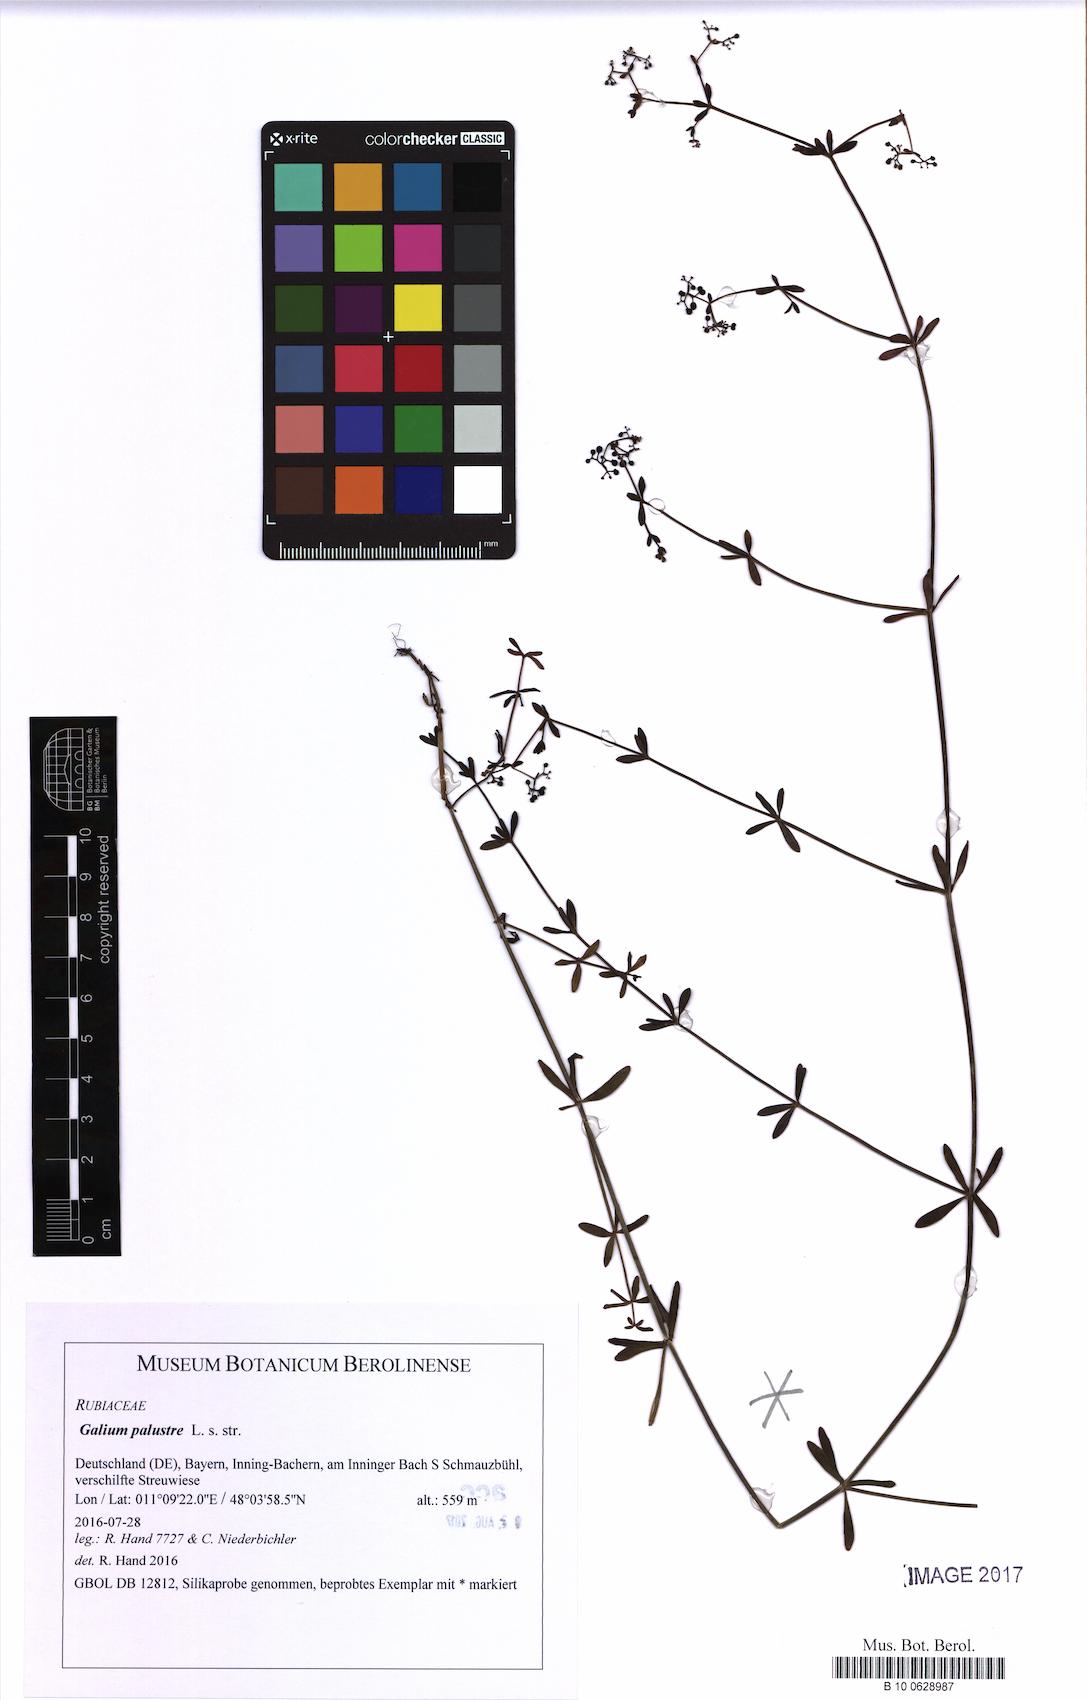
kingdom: Plantae
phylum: Tracheophyta
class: Magnoliopsida
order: Gentianales
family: Rubiaceae
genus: Galium
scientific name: Galium palustre
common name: Common marsh-bedstraw
